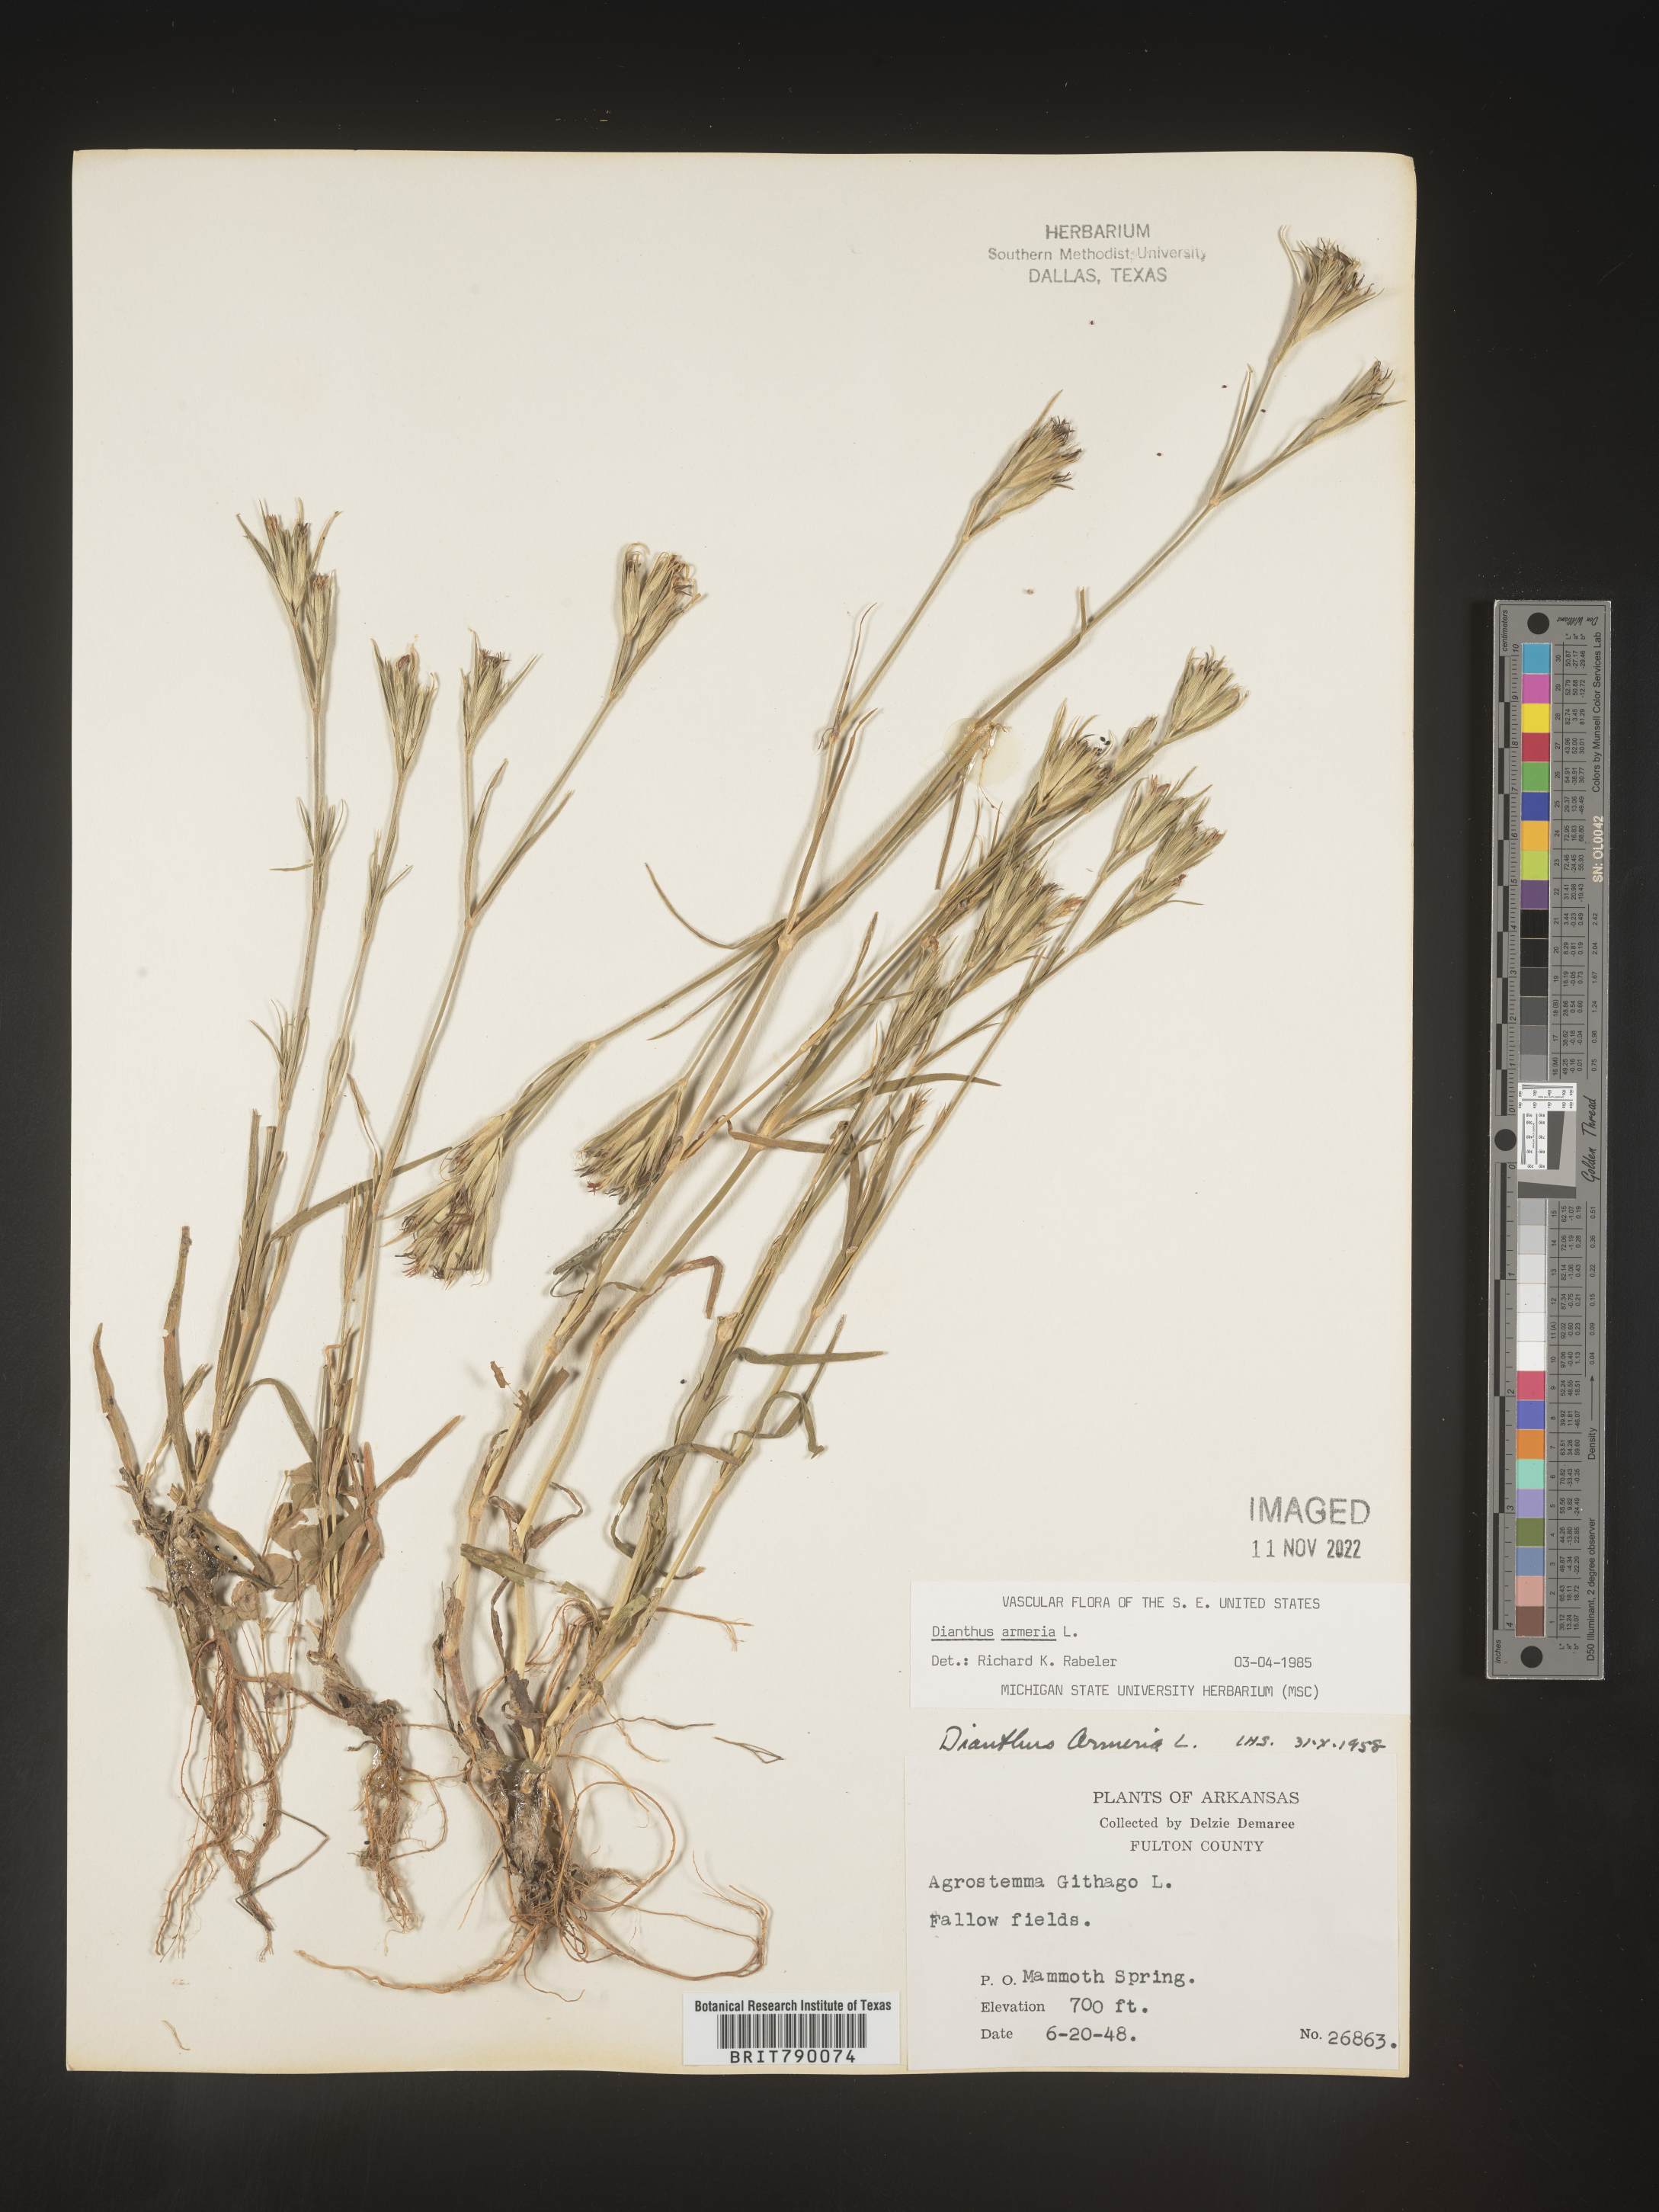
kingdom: Plantae
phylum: Tracheophyta
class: Magnoliopsida
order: Caryophyllales
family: Caryophyllaceae
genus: Dianthus
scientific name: Dianthus armeria
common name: Deptford pink
